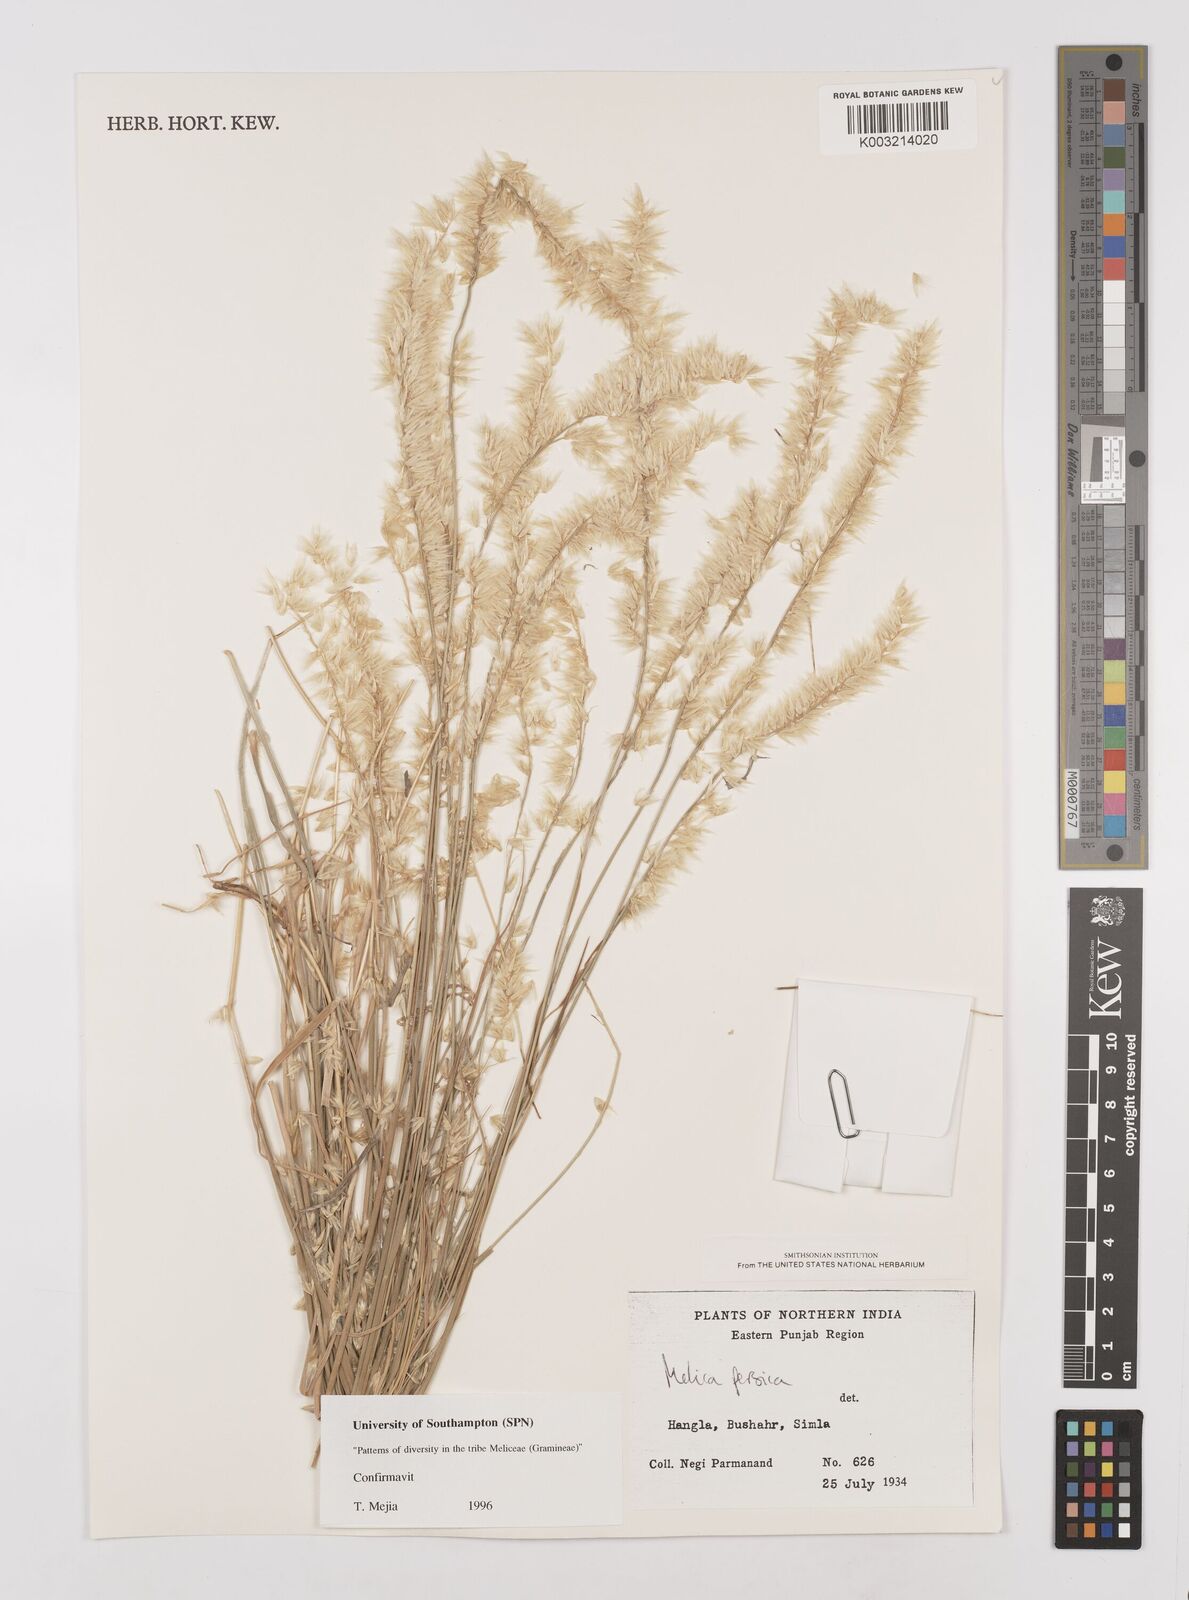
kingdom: Plantae
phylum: Tracheophyta
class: Liliopsida
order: Poales
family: Poaceae
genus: Melica
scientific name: Melica persica
